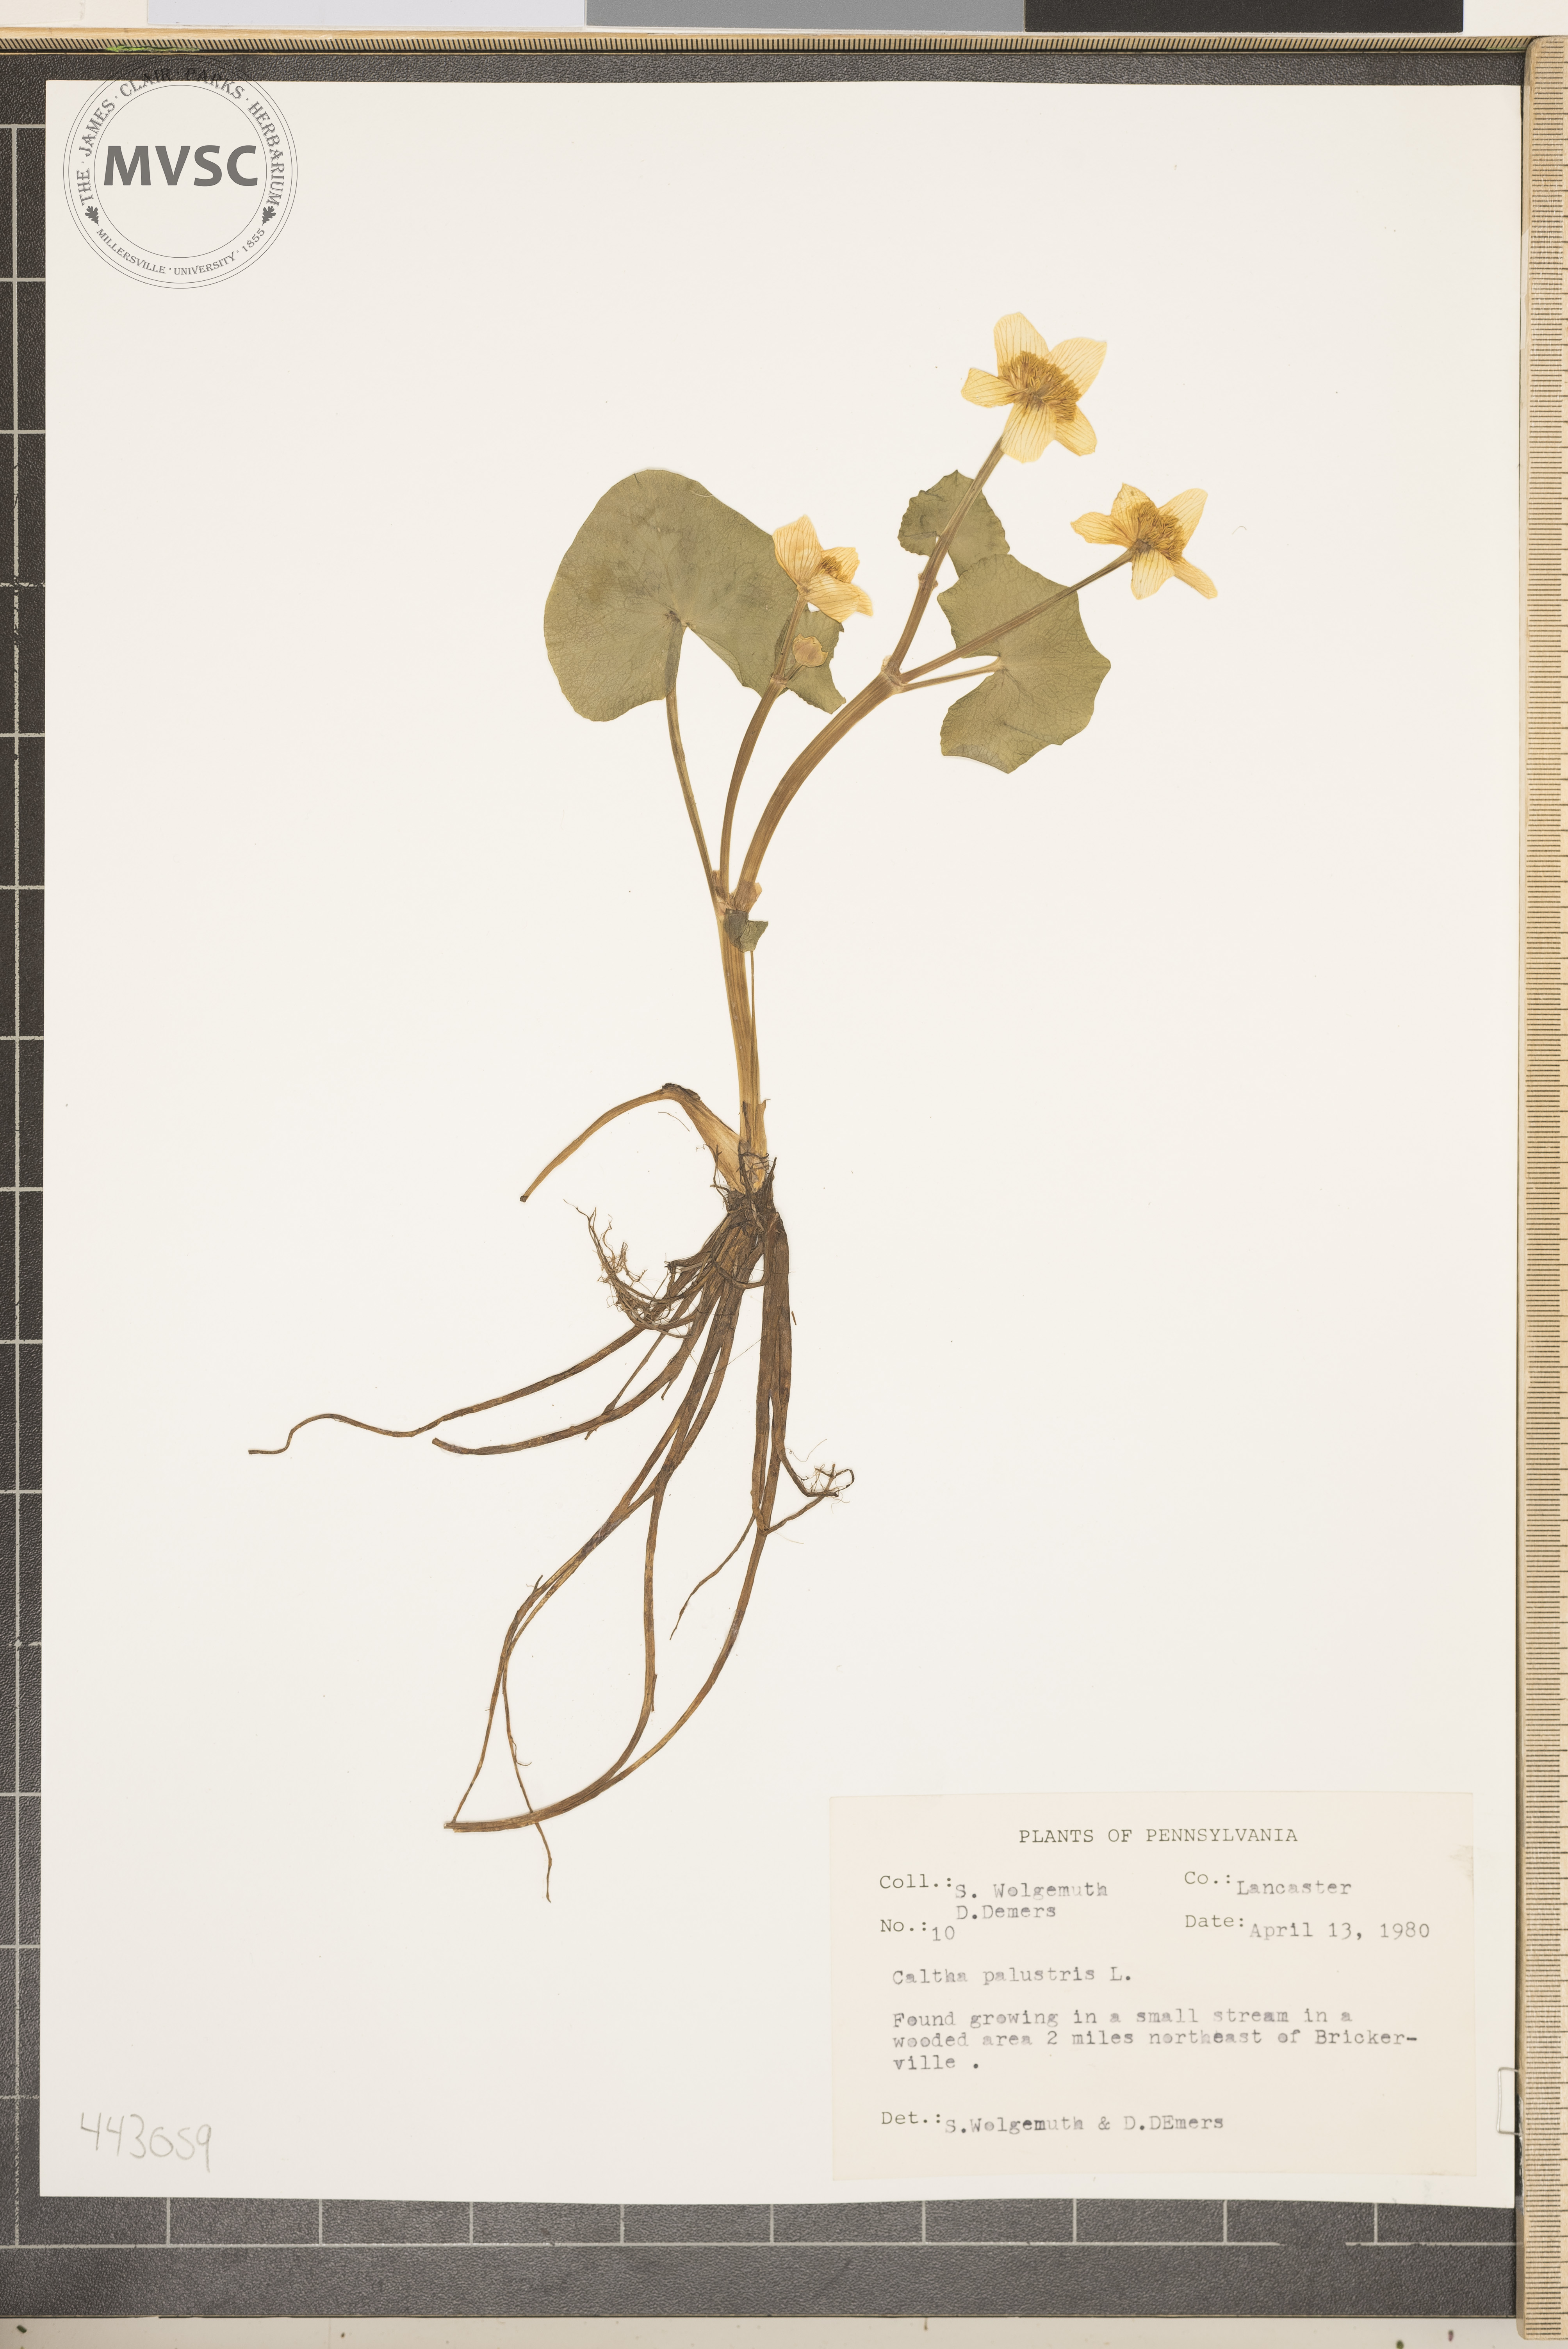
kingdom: Plantae
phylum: Tracheophyta
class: Magnoliopsida
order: Ranunculales
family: Ranunculaceae
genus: Caltha
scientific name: Caltha palustris
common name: Marsh marigold
